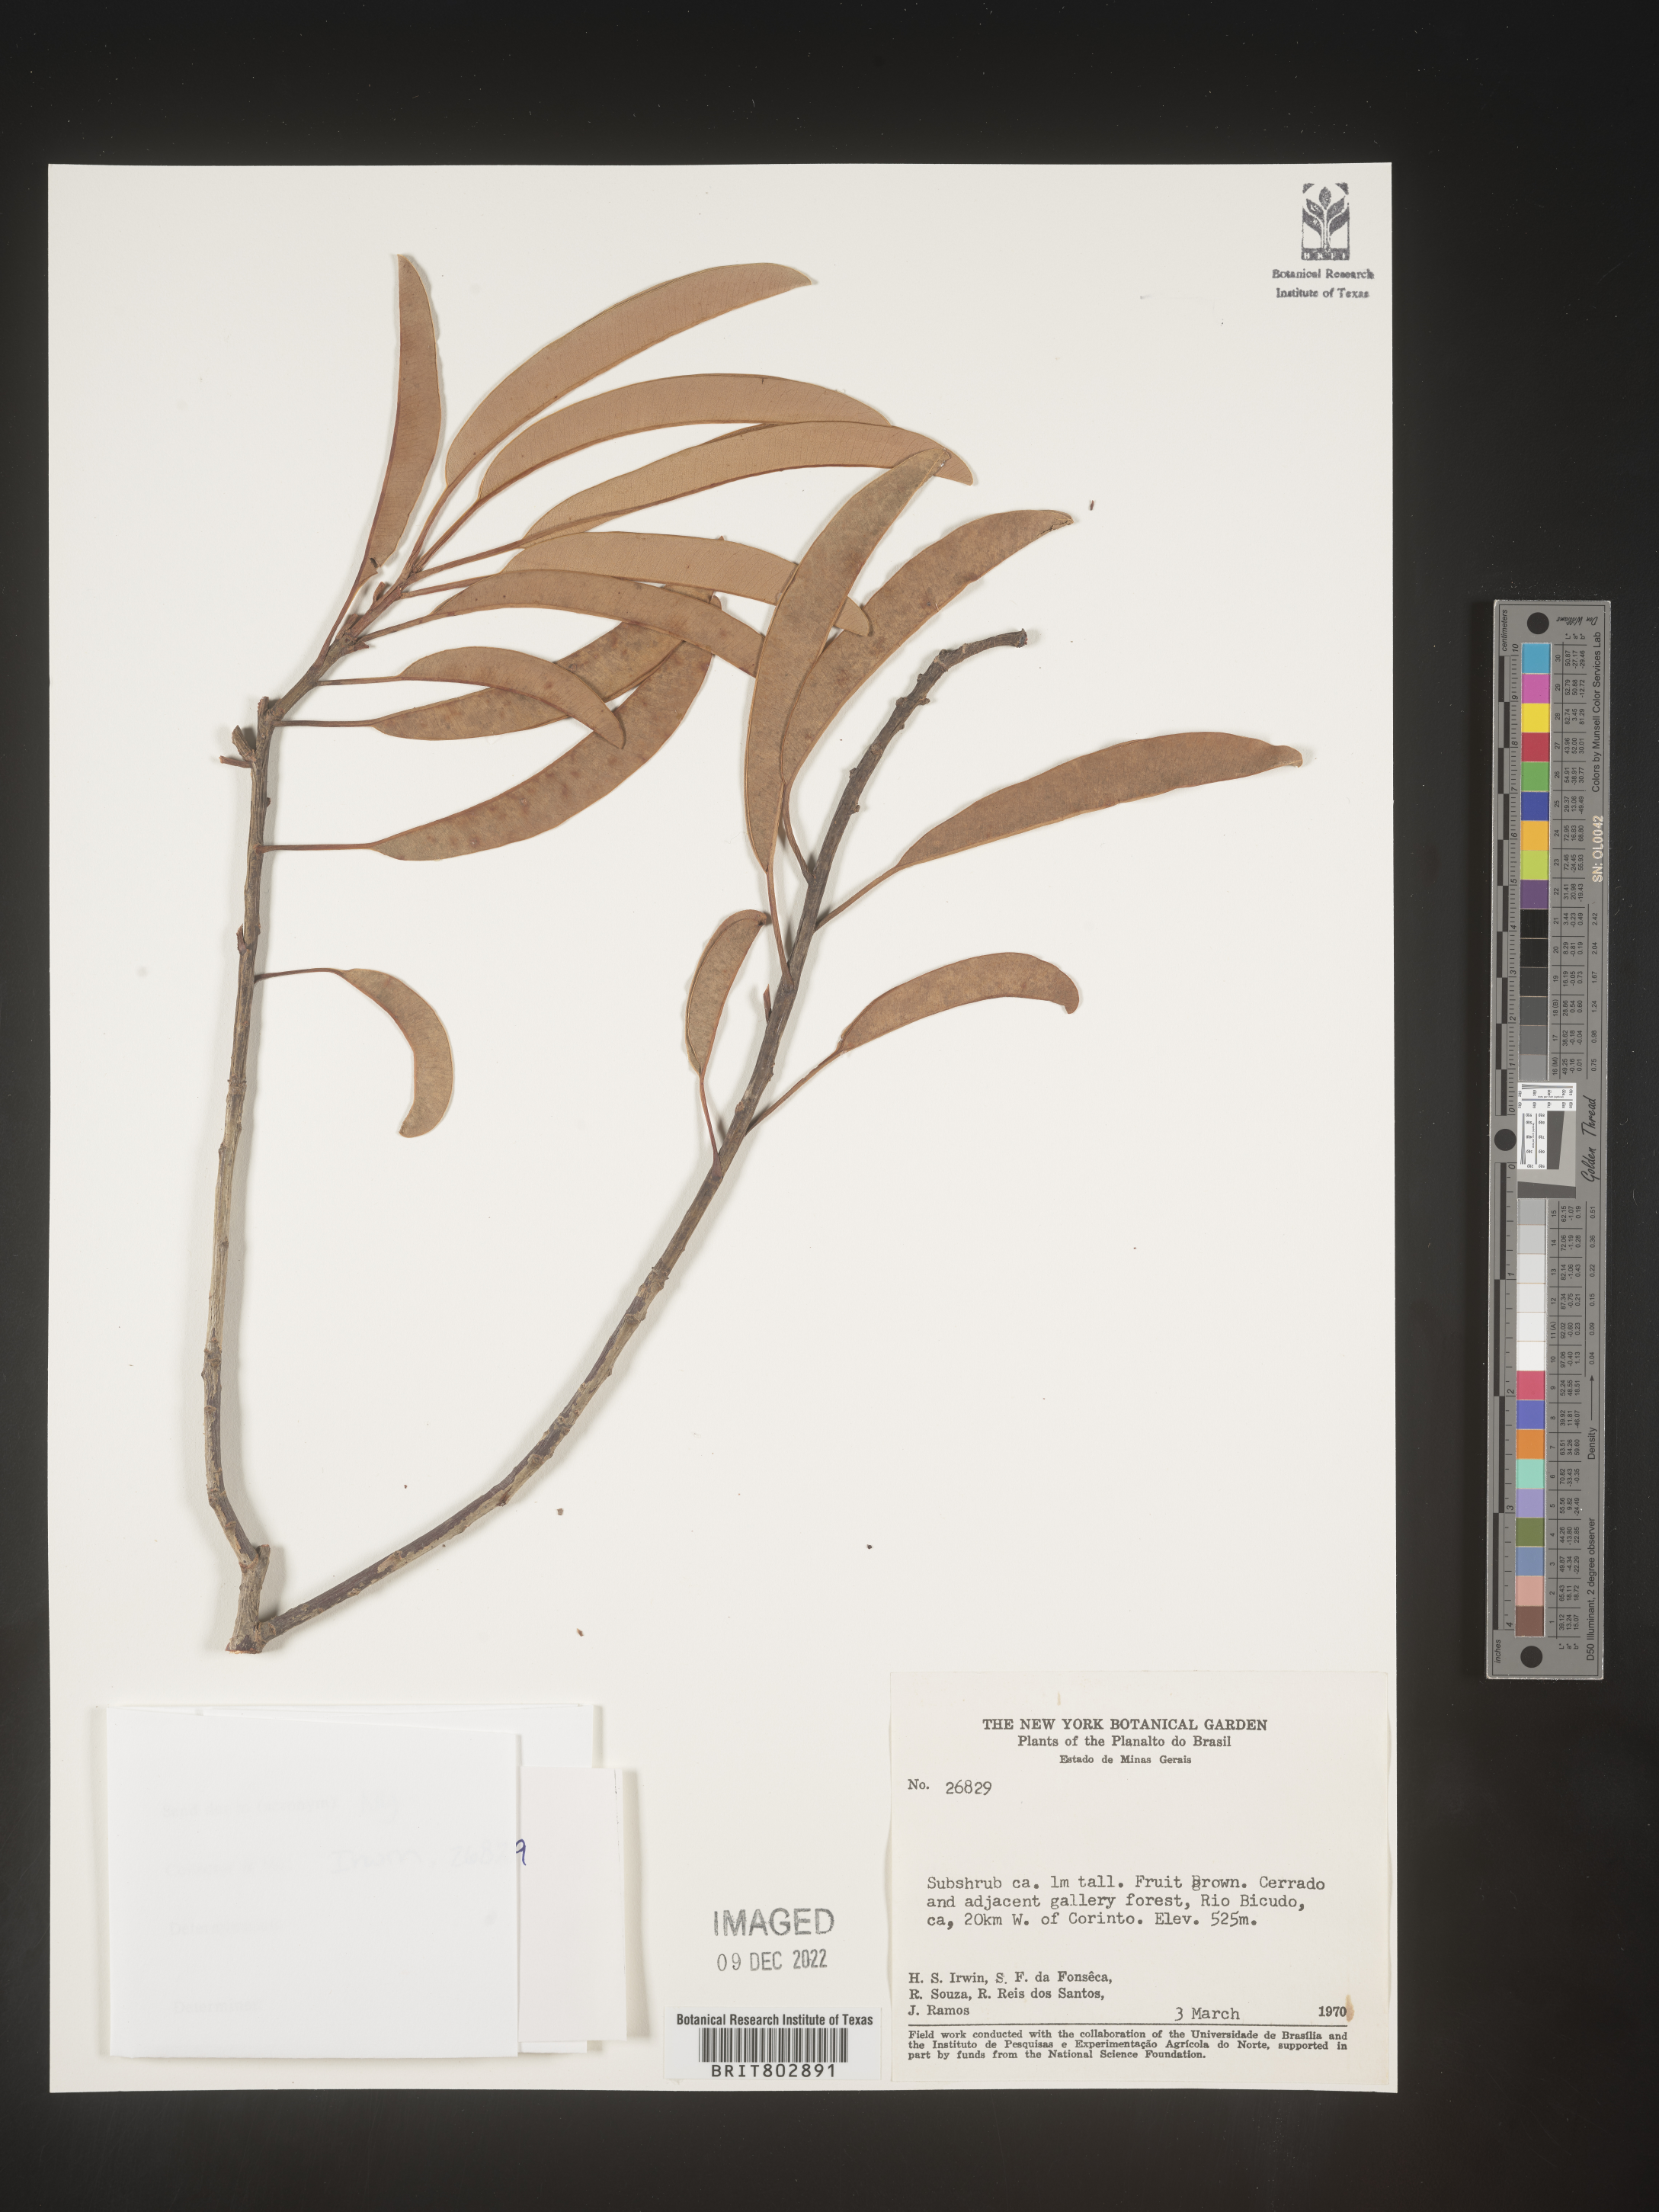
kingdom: Plantae
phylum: Tracheophyta
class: Magnoliopsida
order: Malpighiales
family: Calophyllaceae
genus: Kielmeyera
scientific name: Kielmeyera
